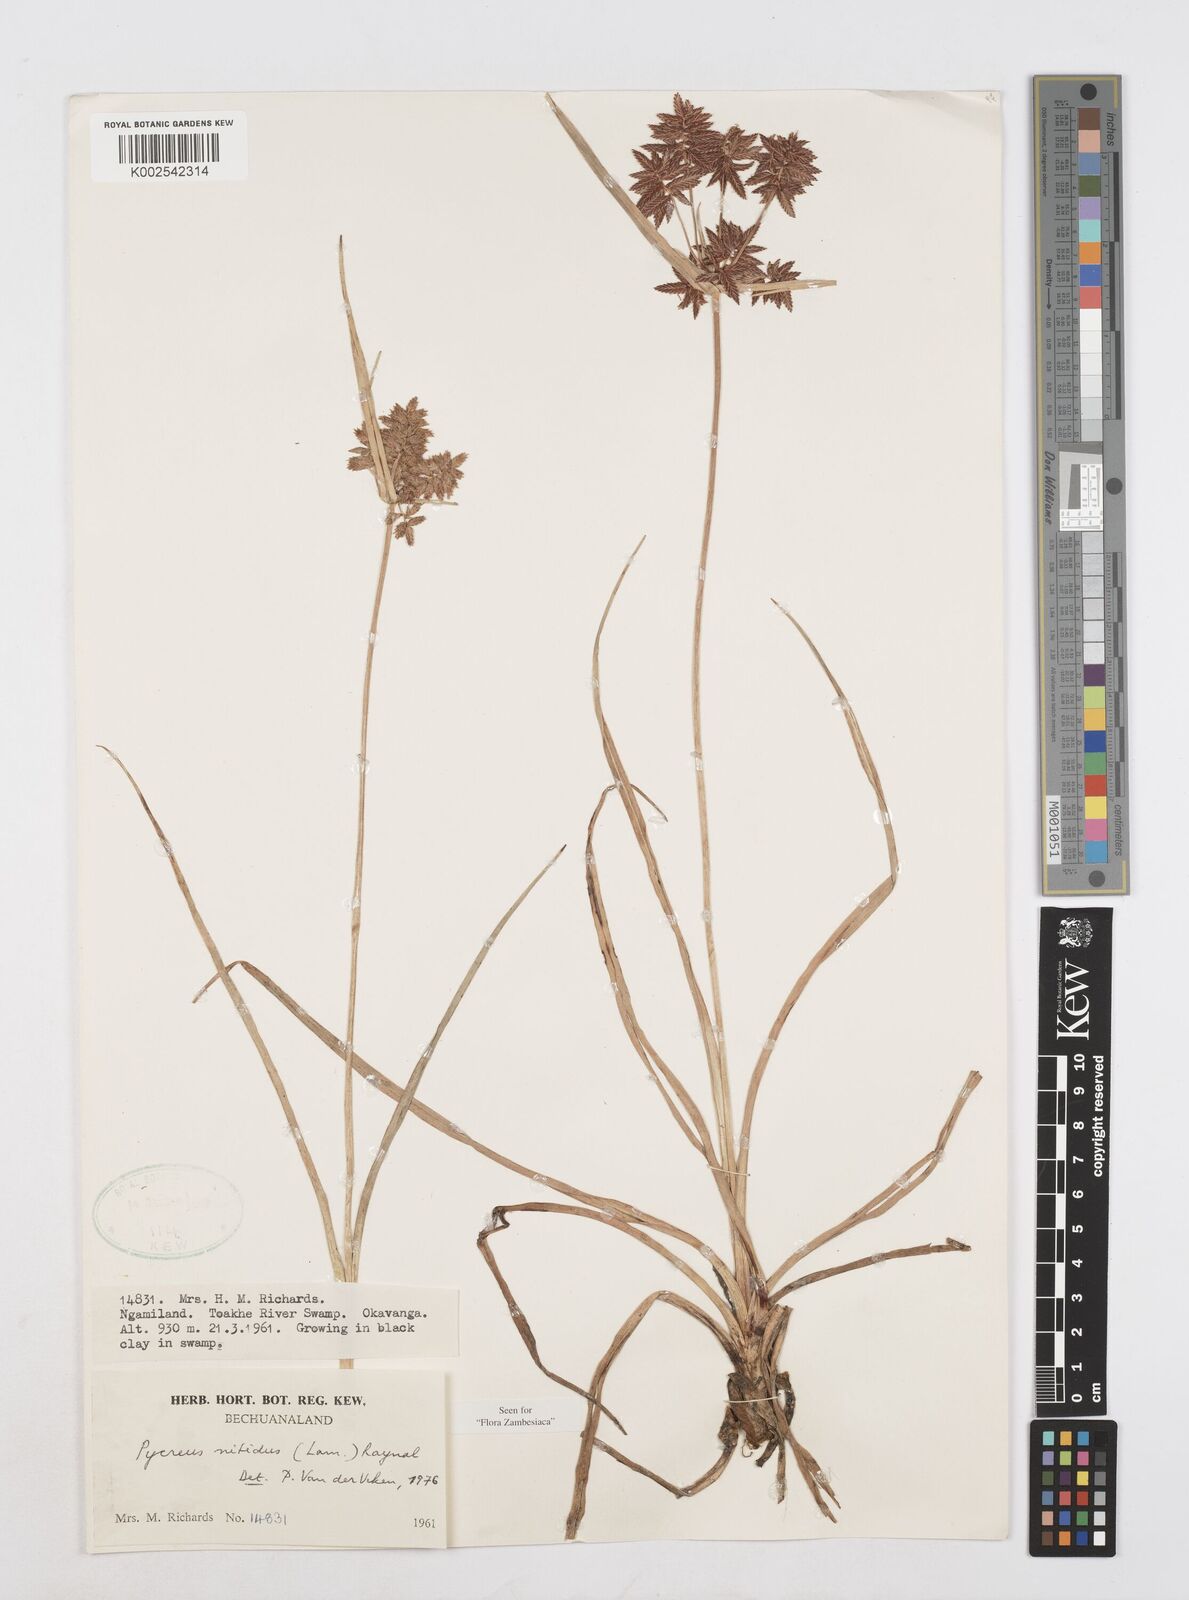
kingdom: Plantae
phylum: Tracheophyta
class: Liliopsida
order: Poales
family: Cyperaceae
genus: Cyperus
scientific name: Cyperus nitidus
